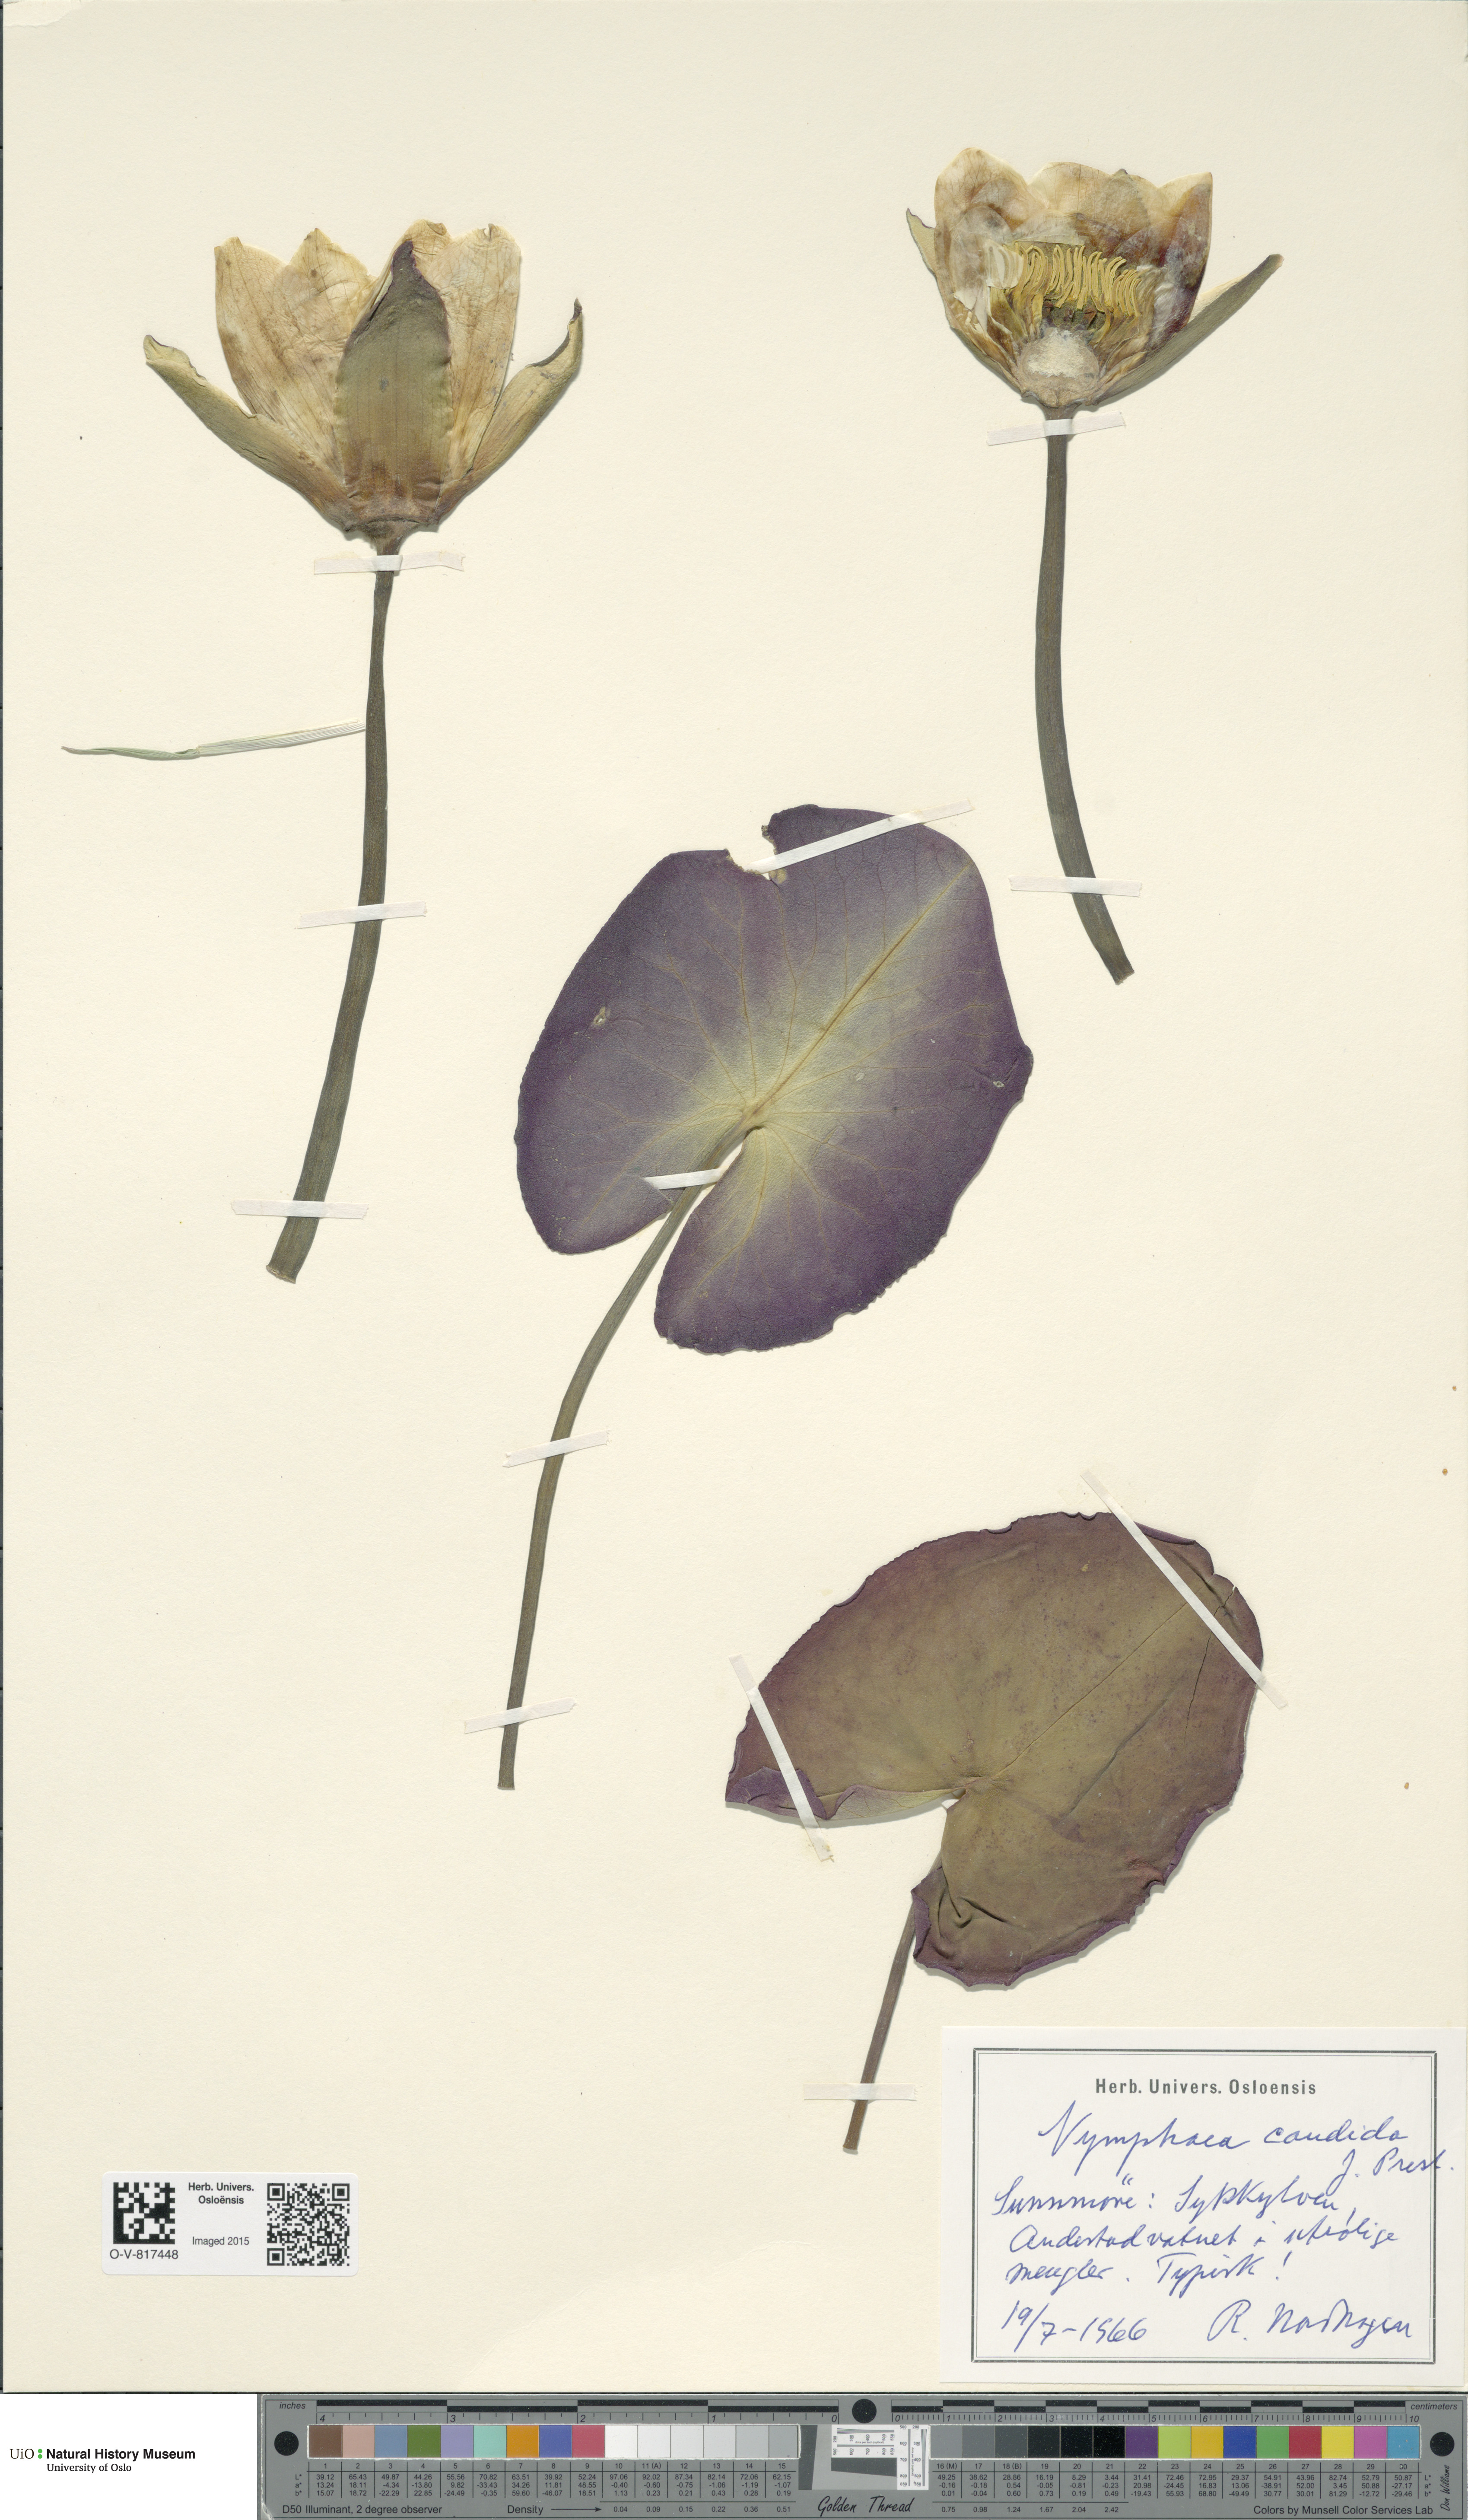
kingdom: Plantae
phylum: Tracheophyta
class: Magnoliopsida
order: Nymphaeales
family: Nymphaeaceae
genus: Nymphaea
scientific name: Nymphaea candida
